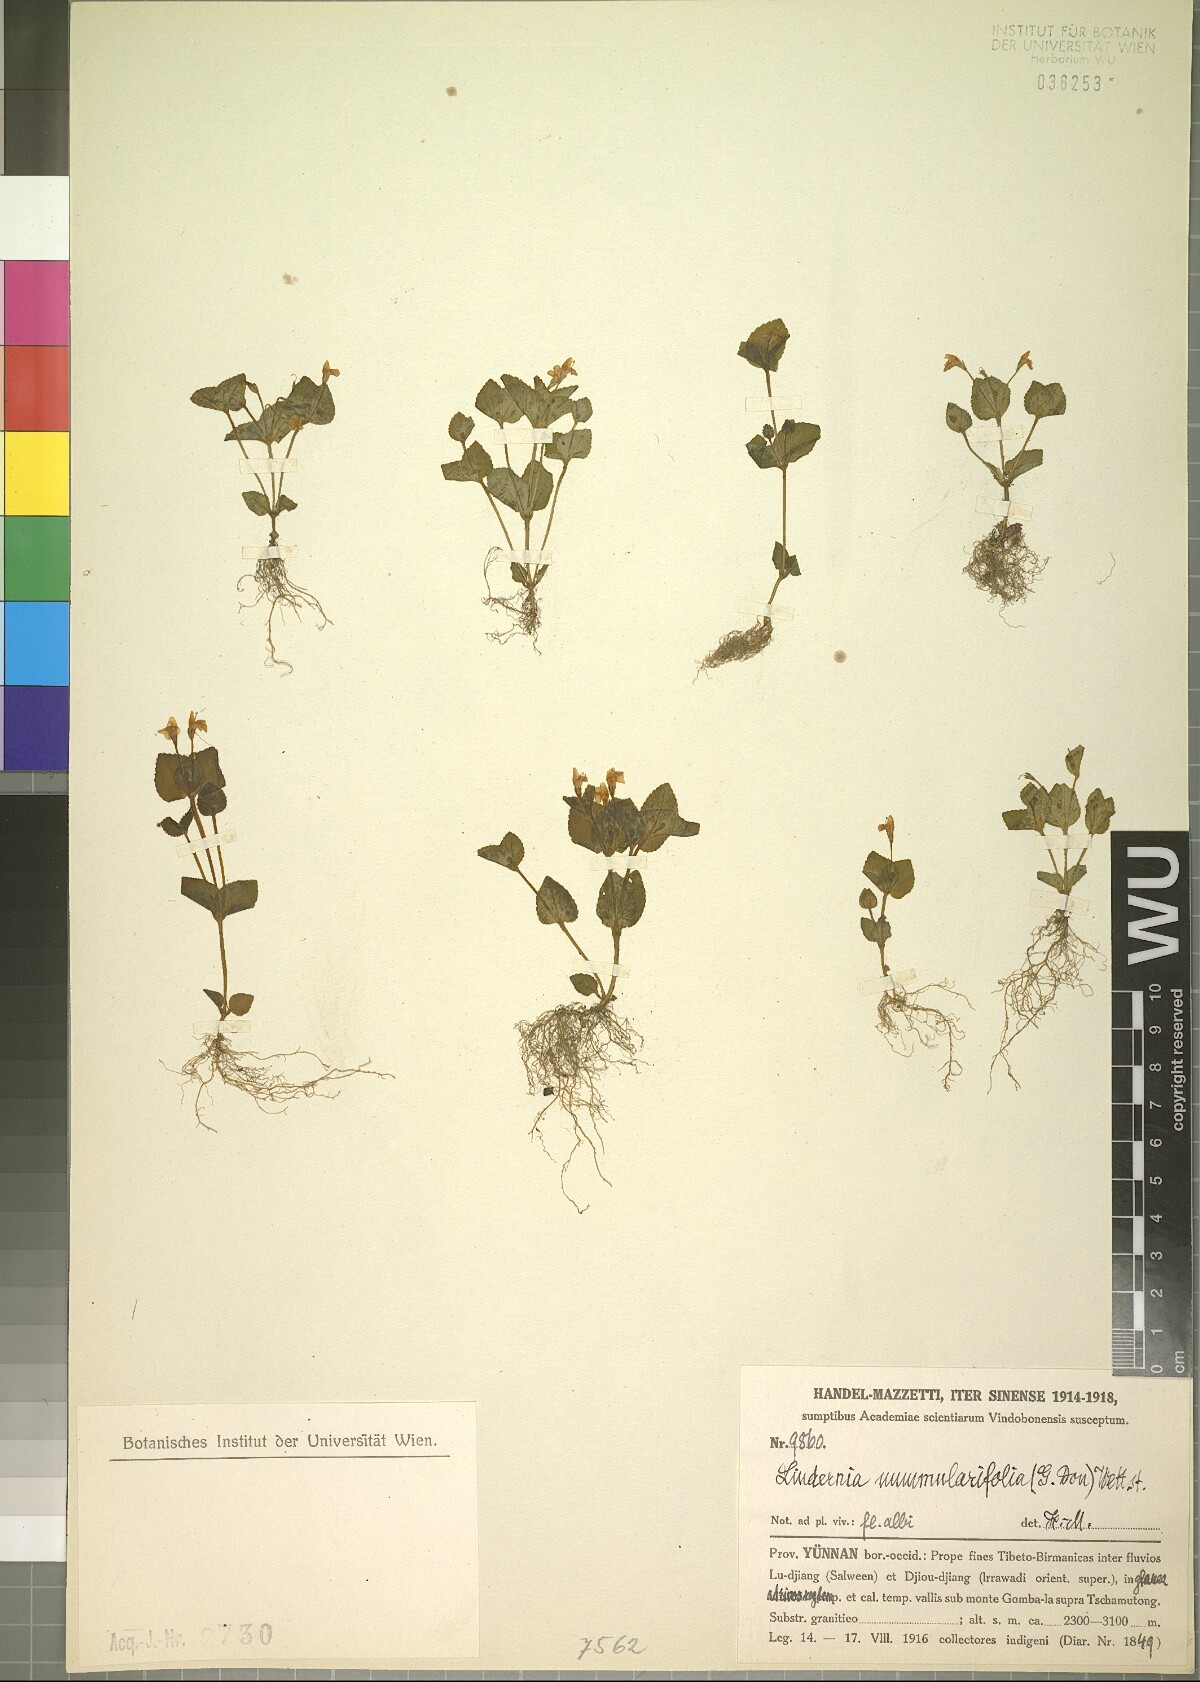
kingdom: Plantae
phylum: Tracheophyta
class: Magnoliopsida
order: Lamiales
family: Linderniaceae
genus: Craterostigma
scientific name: Craterostigma nummulariifolium
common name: False pimpernel
